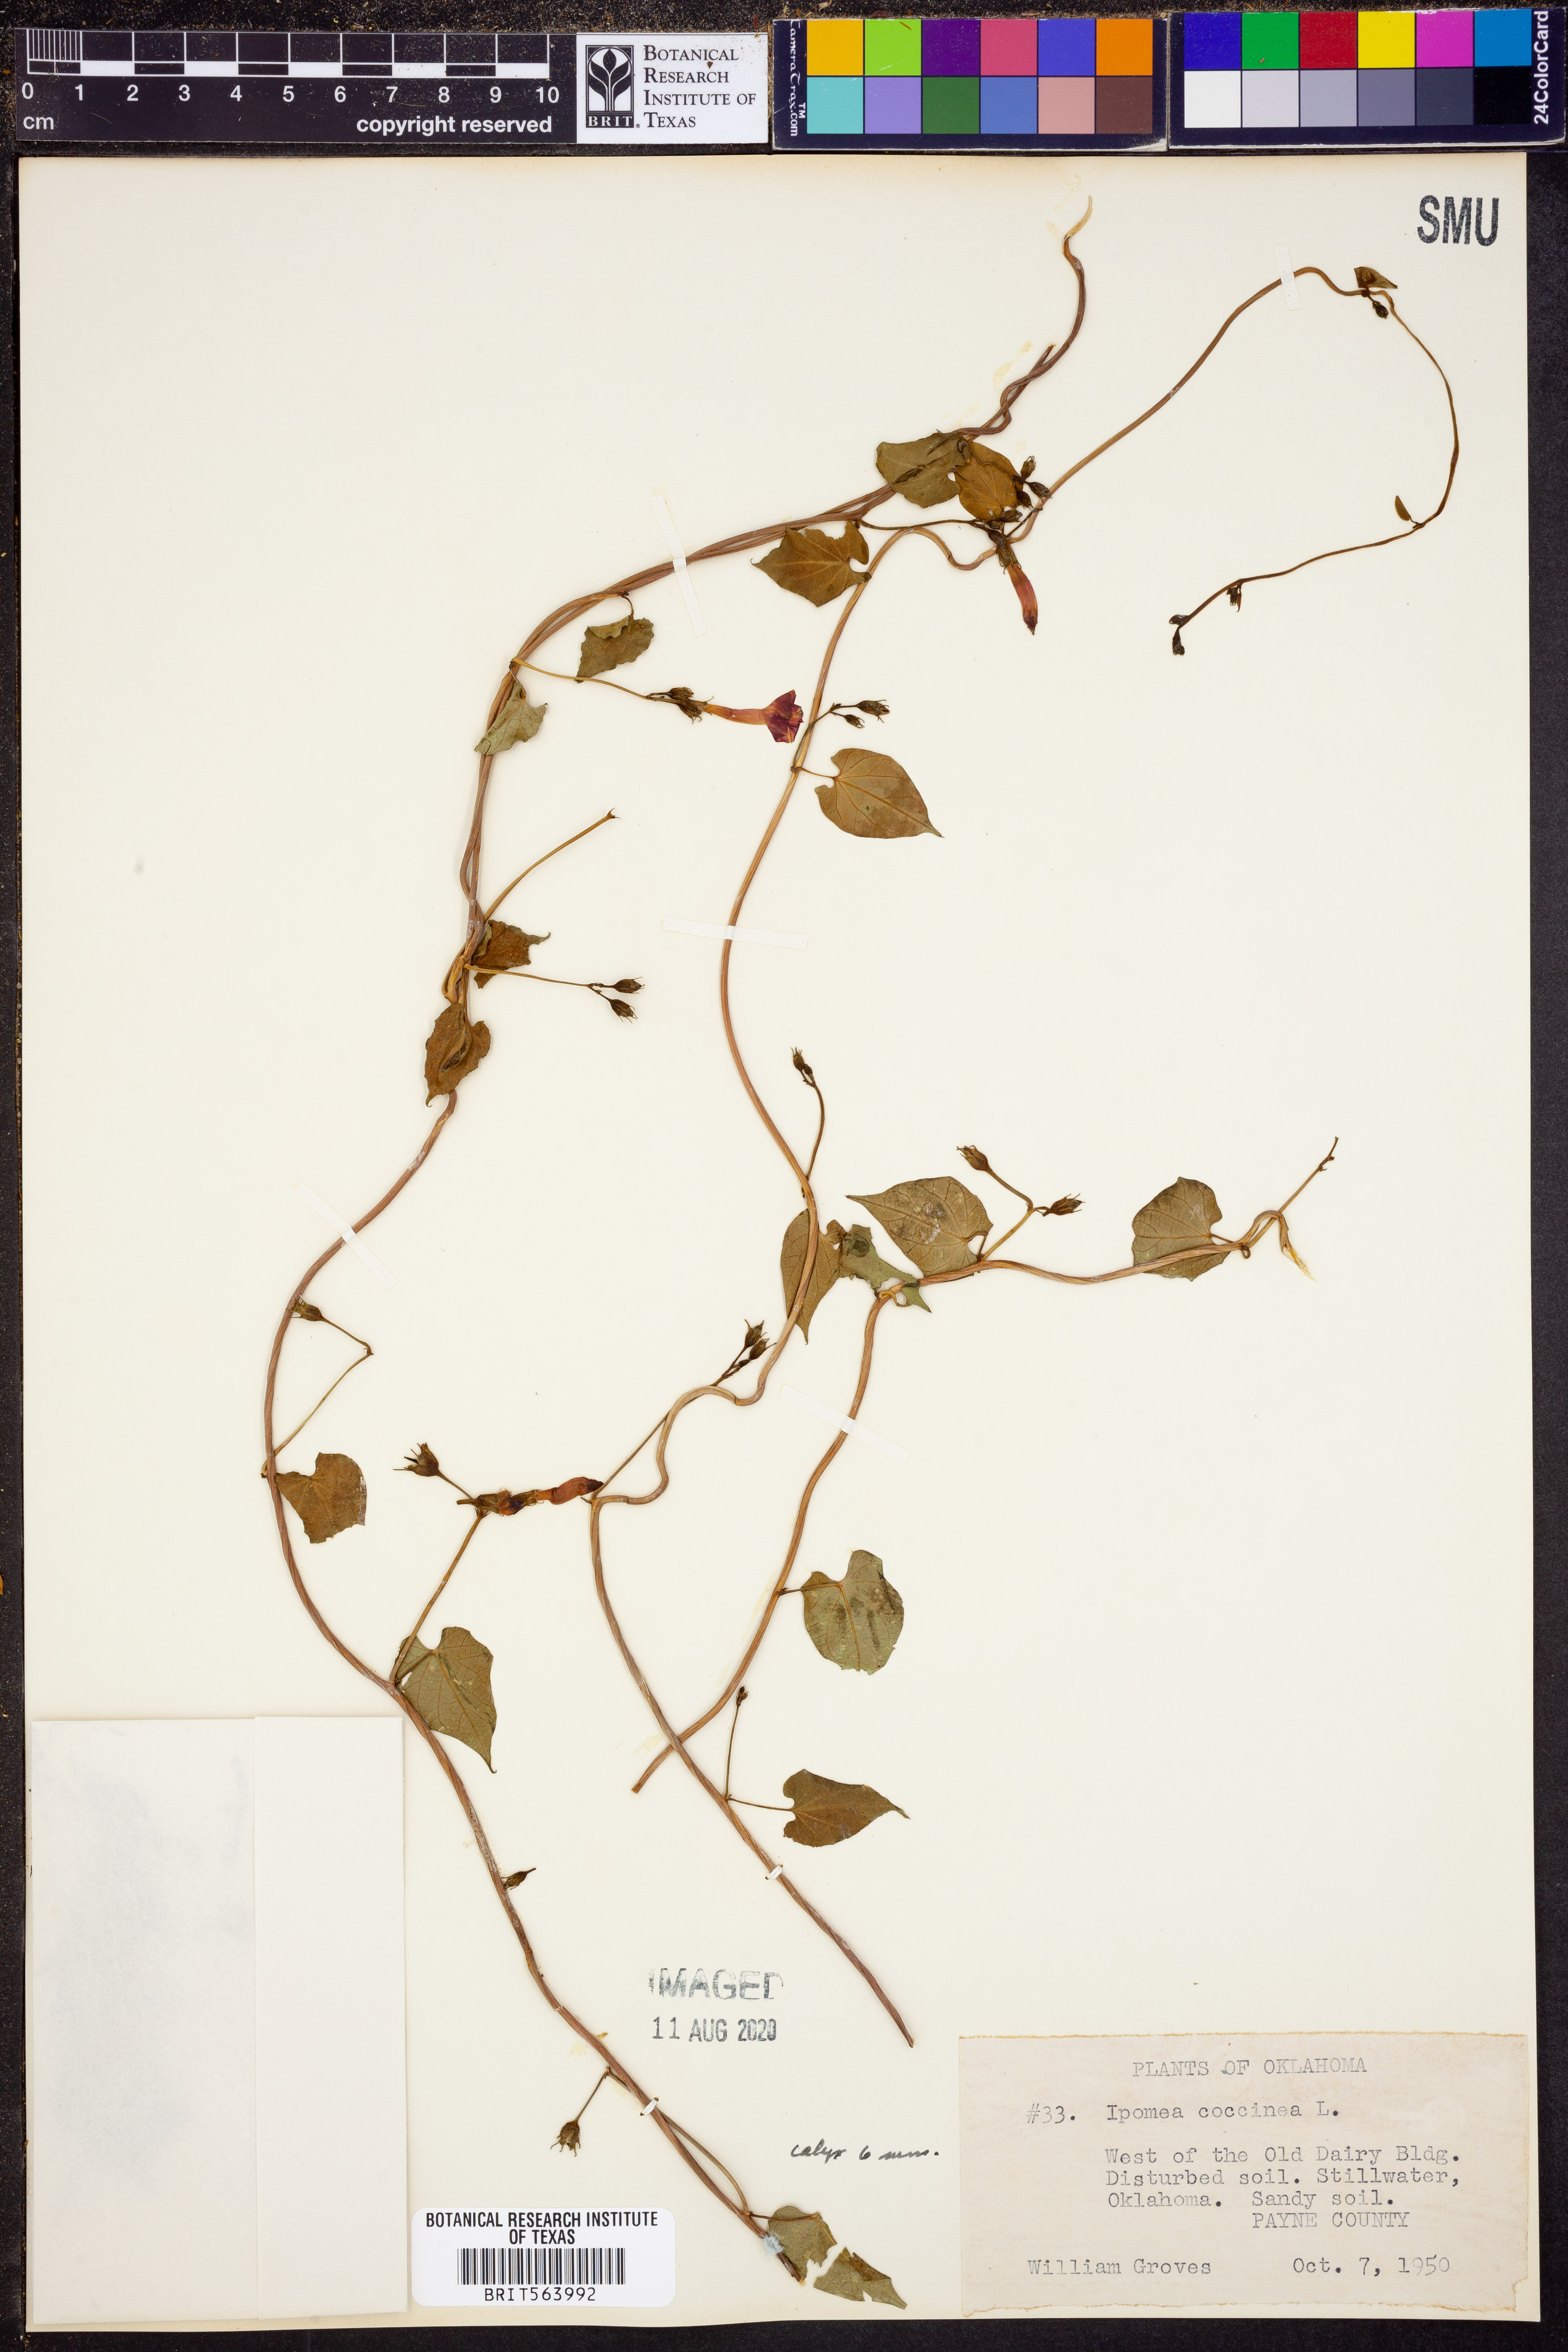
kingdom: Plantae
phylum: Tracheophyta
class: Magnoliopsida
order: Solanales
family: Convolvulaceae
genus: Ipomoea
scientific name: Ipomoea coccinea
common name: Red morning-glory
